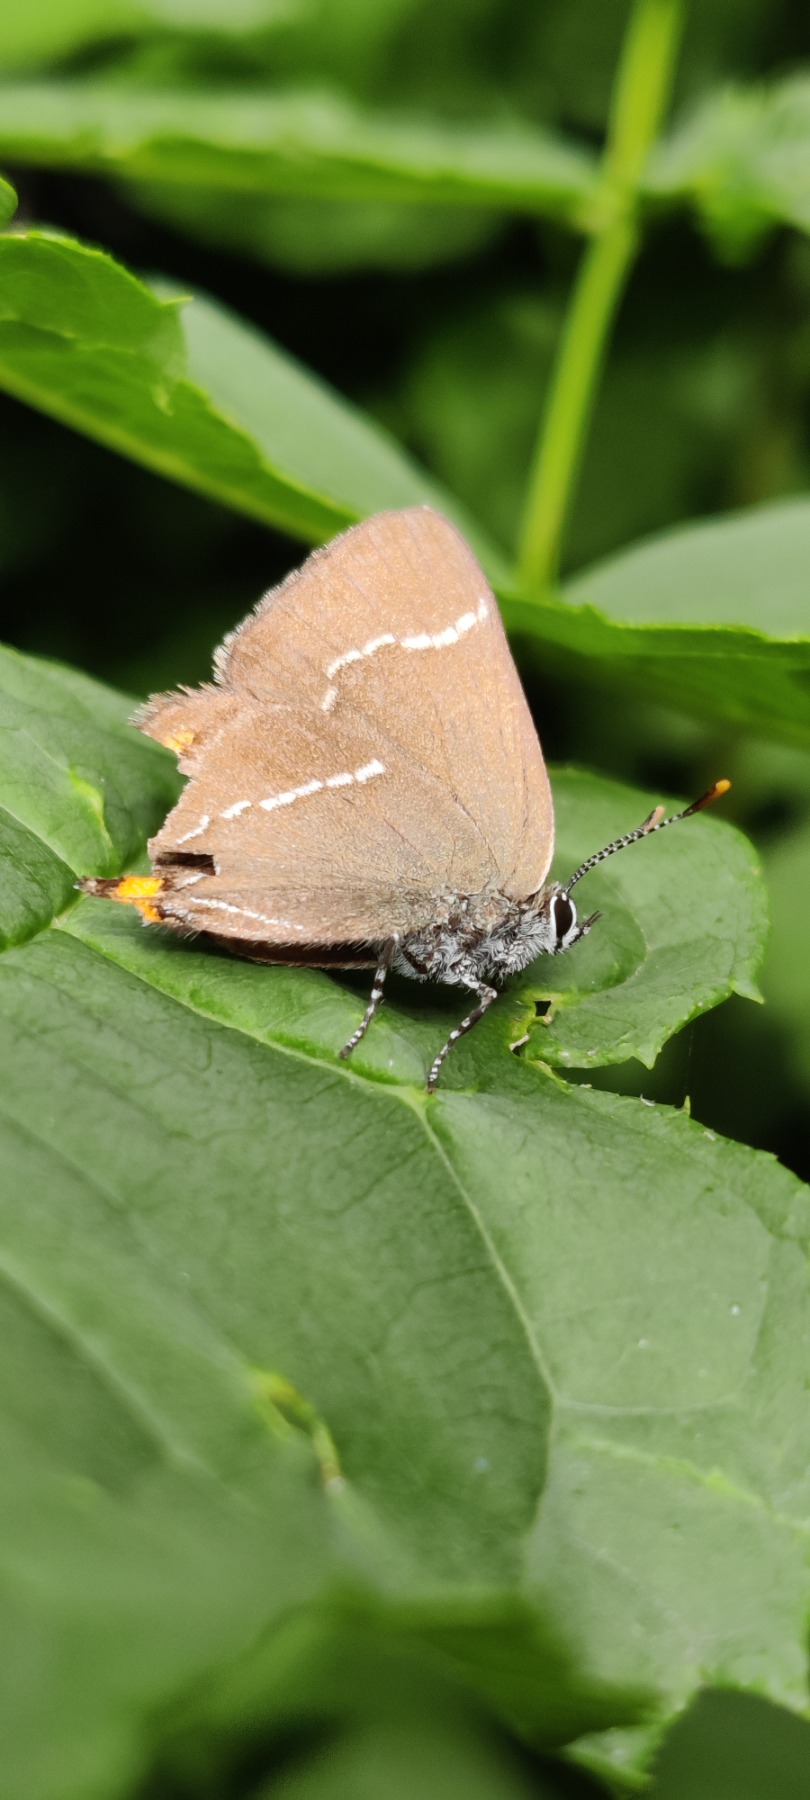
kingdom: Animalia
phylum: Arthropoda
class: Insecta
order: Lepidoptera
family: Lycaenidae
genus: Satyrium
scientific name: Satyrium w-album
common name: Det hvide W
